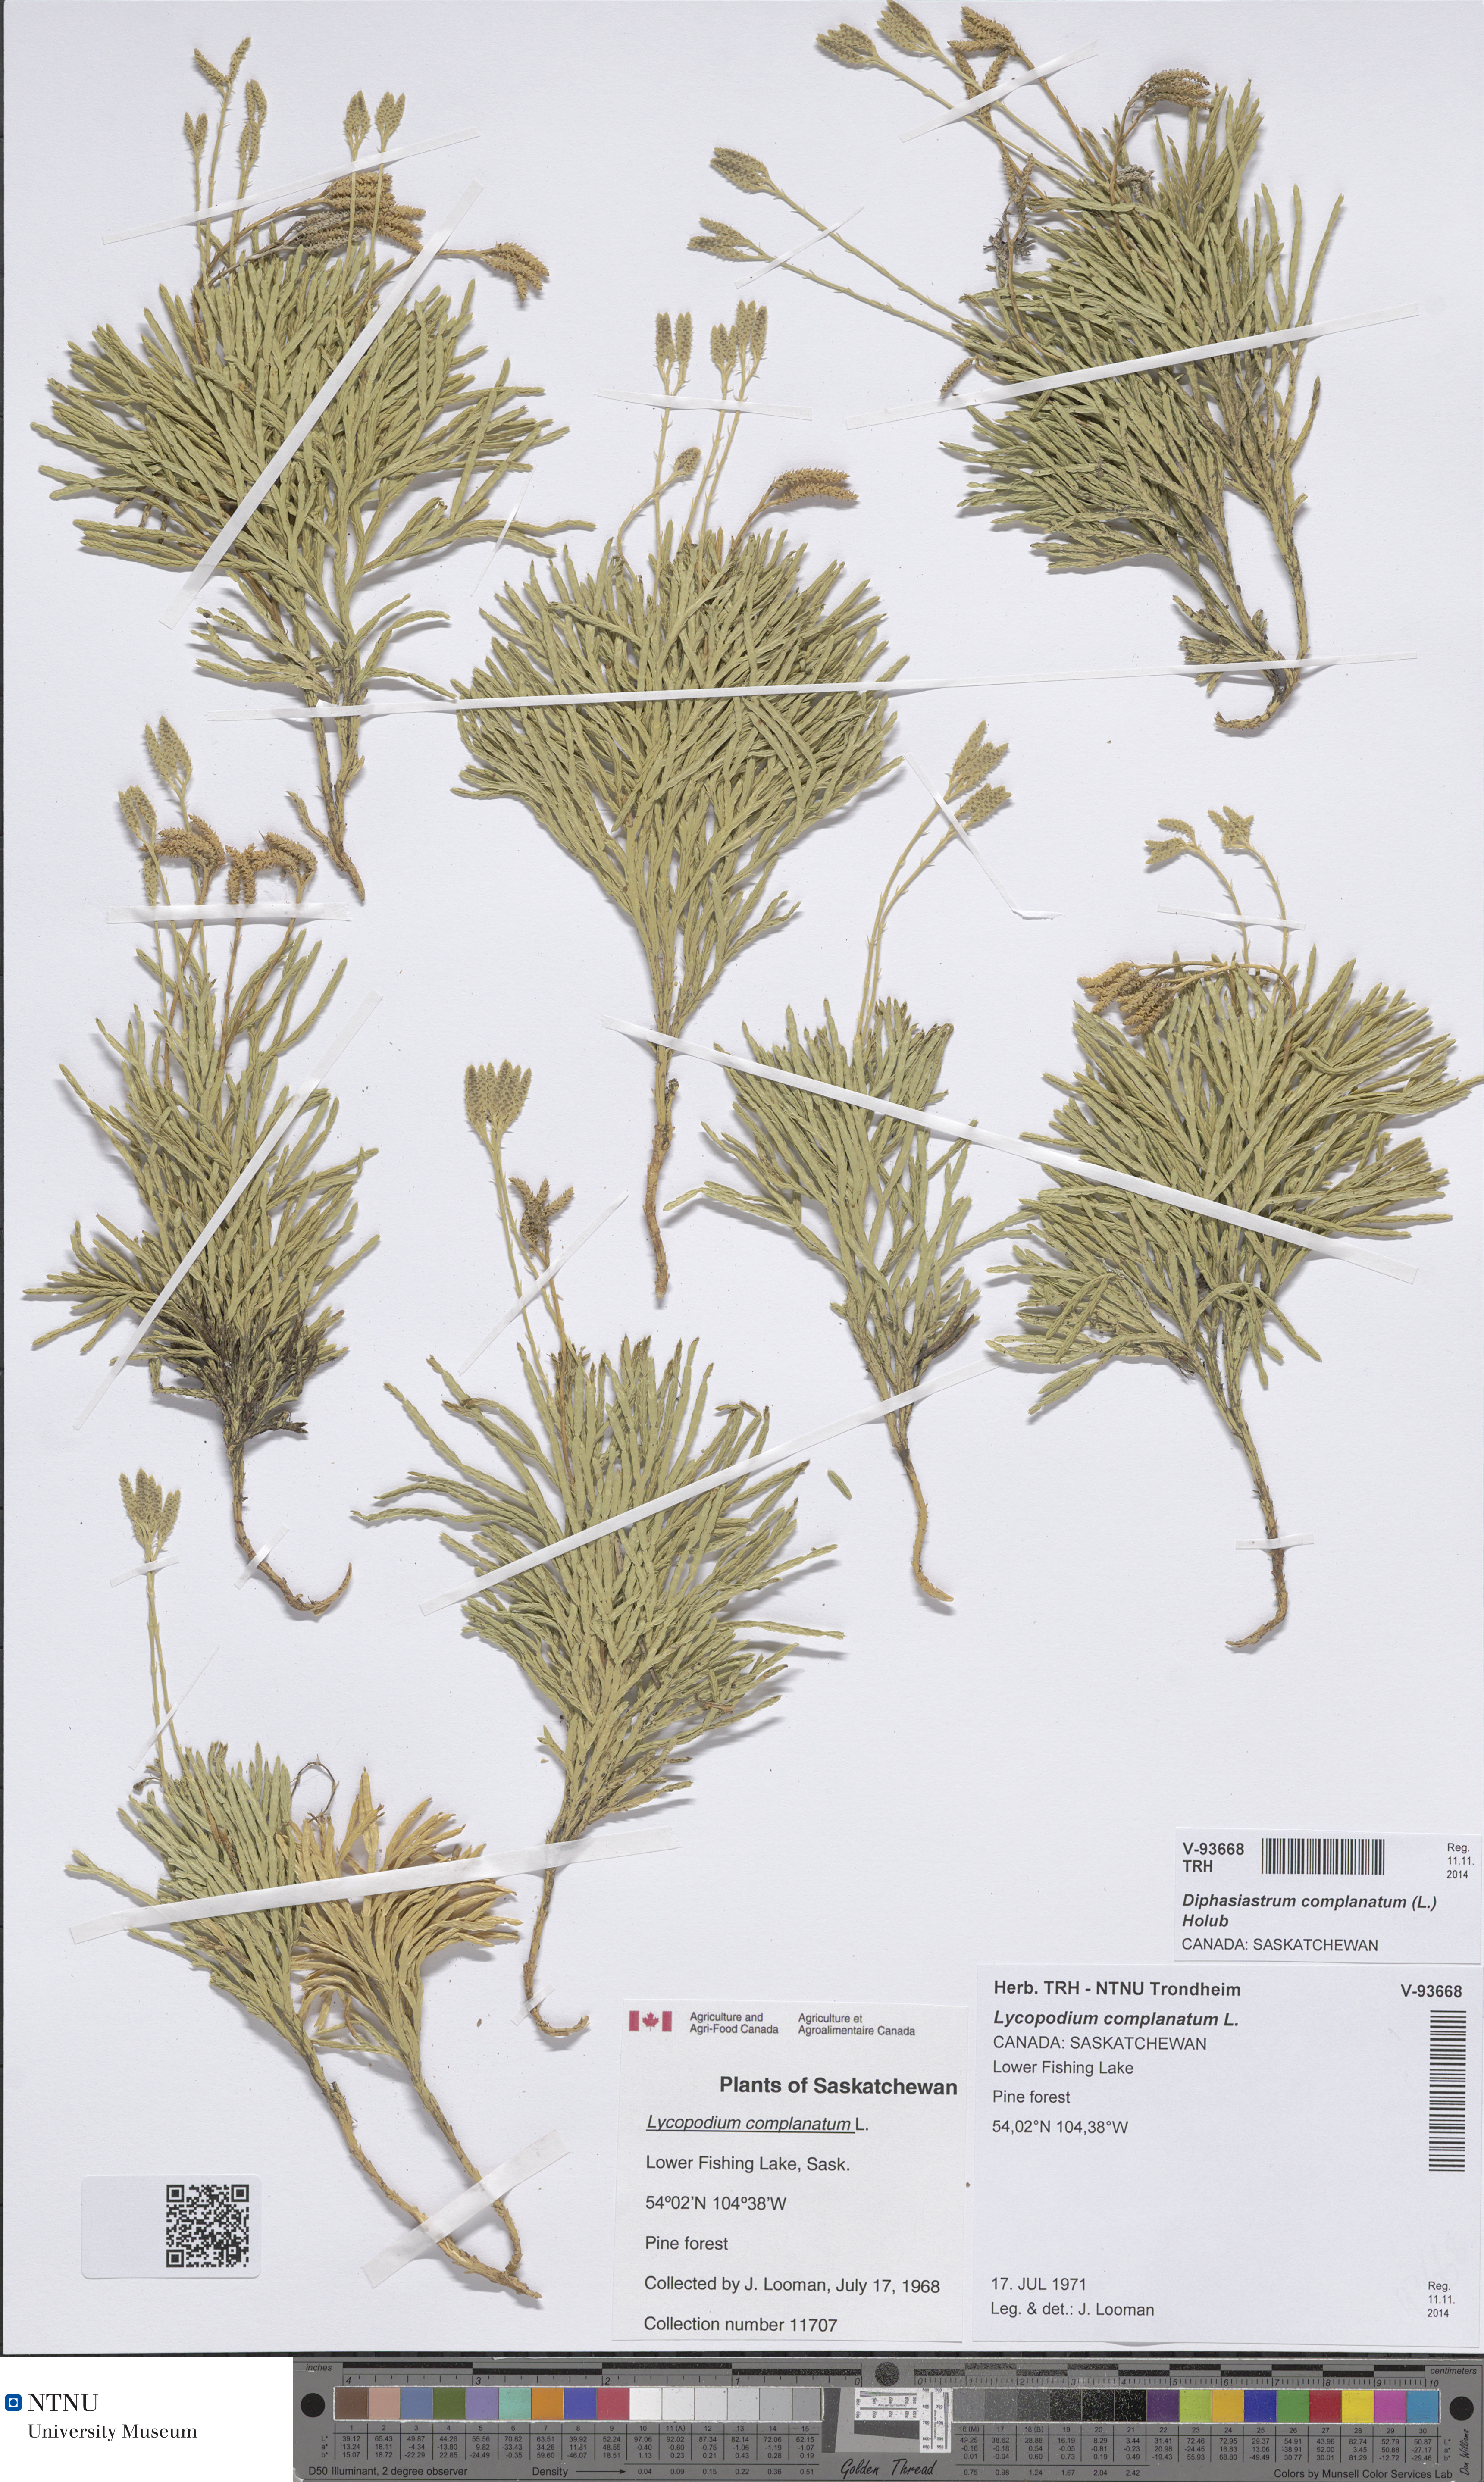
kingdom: Plantae
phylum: Tracheophyta
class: Lycopodiopsida
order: Lycopodiales
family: Lycopodiaceae
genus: Diphasiastrum
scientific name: Diphasiastrum complanatum
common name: Northern running-pine
